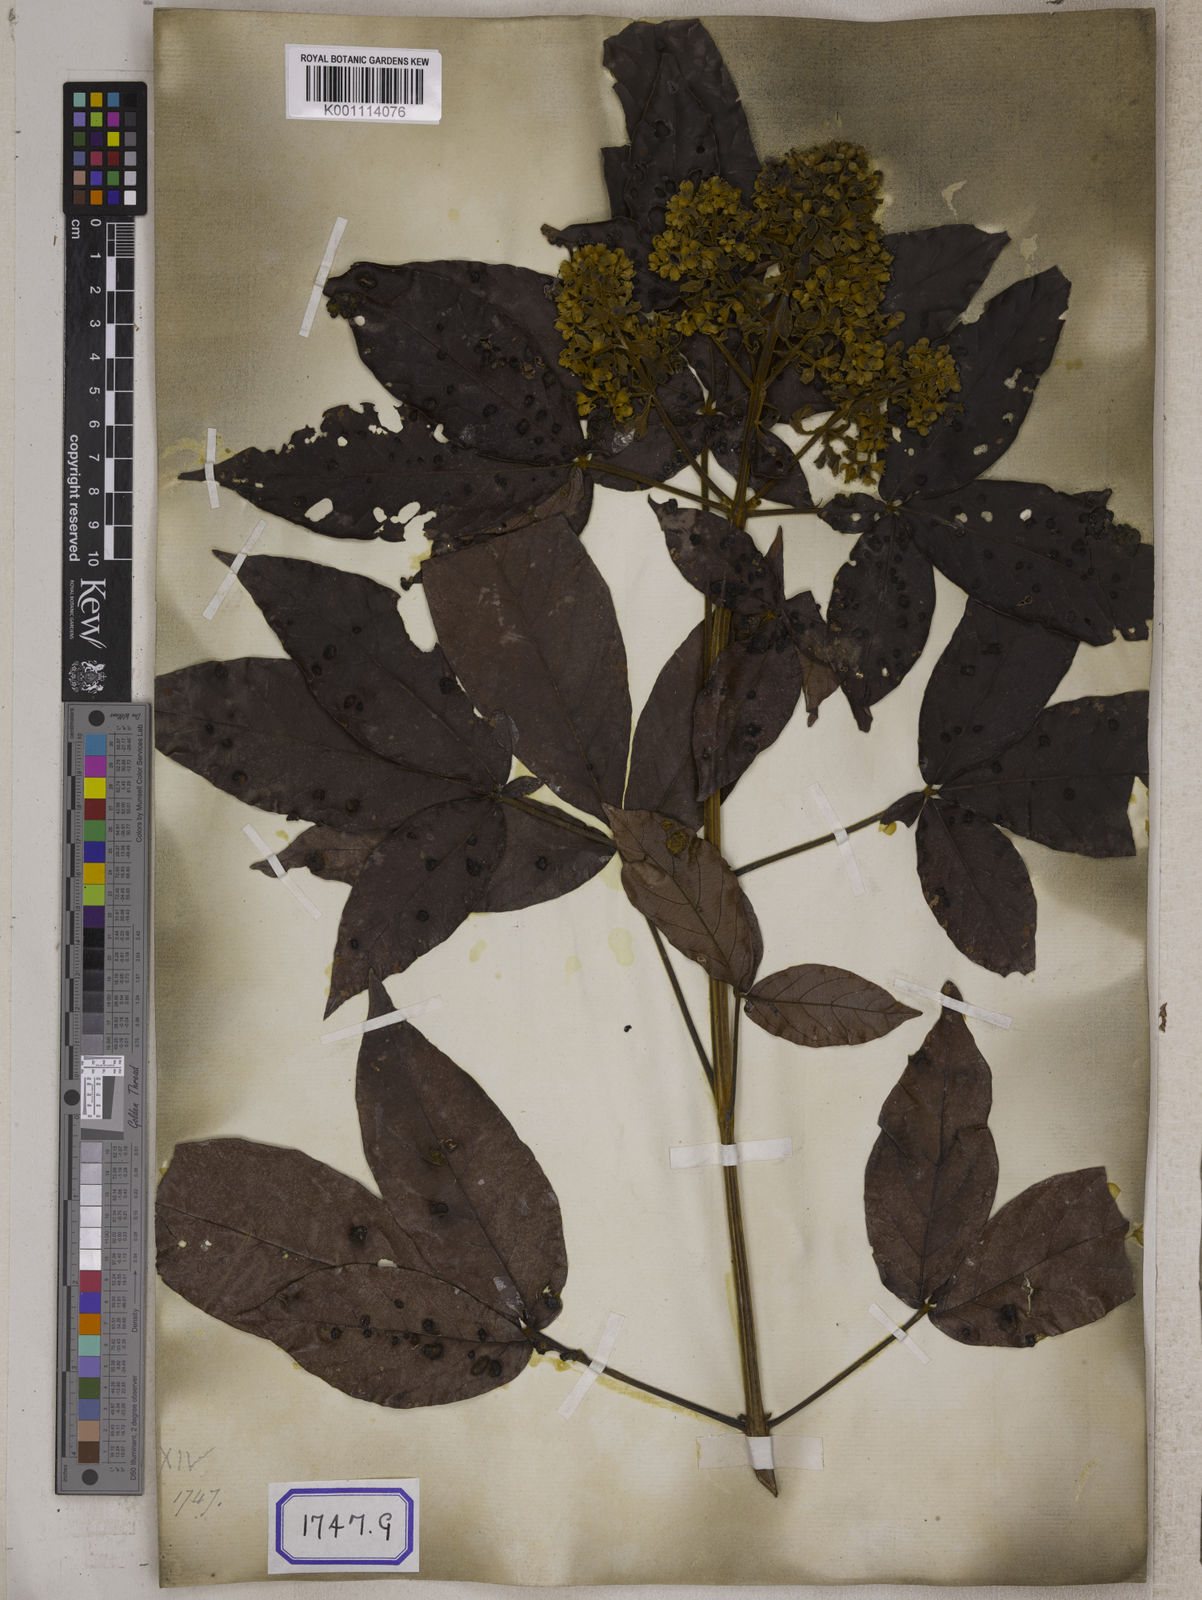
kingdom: Plantae
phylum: Tracheophyta
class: Magnoliopsida
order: Lamiales
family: Lamiaceae
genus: Vitex
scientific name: Vitex pinnata
